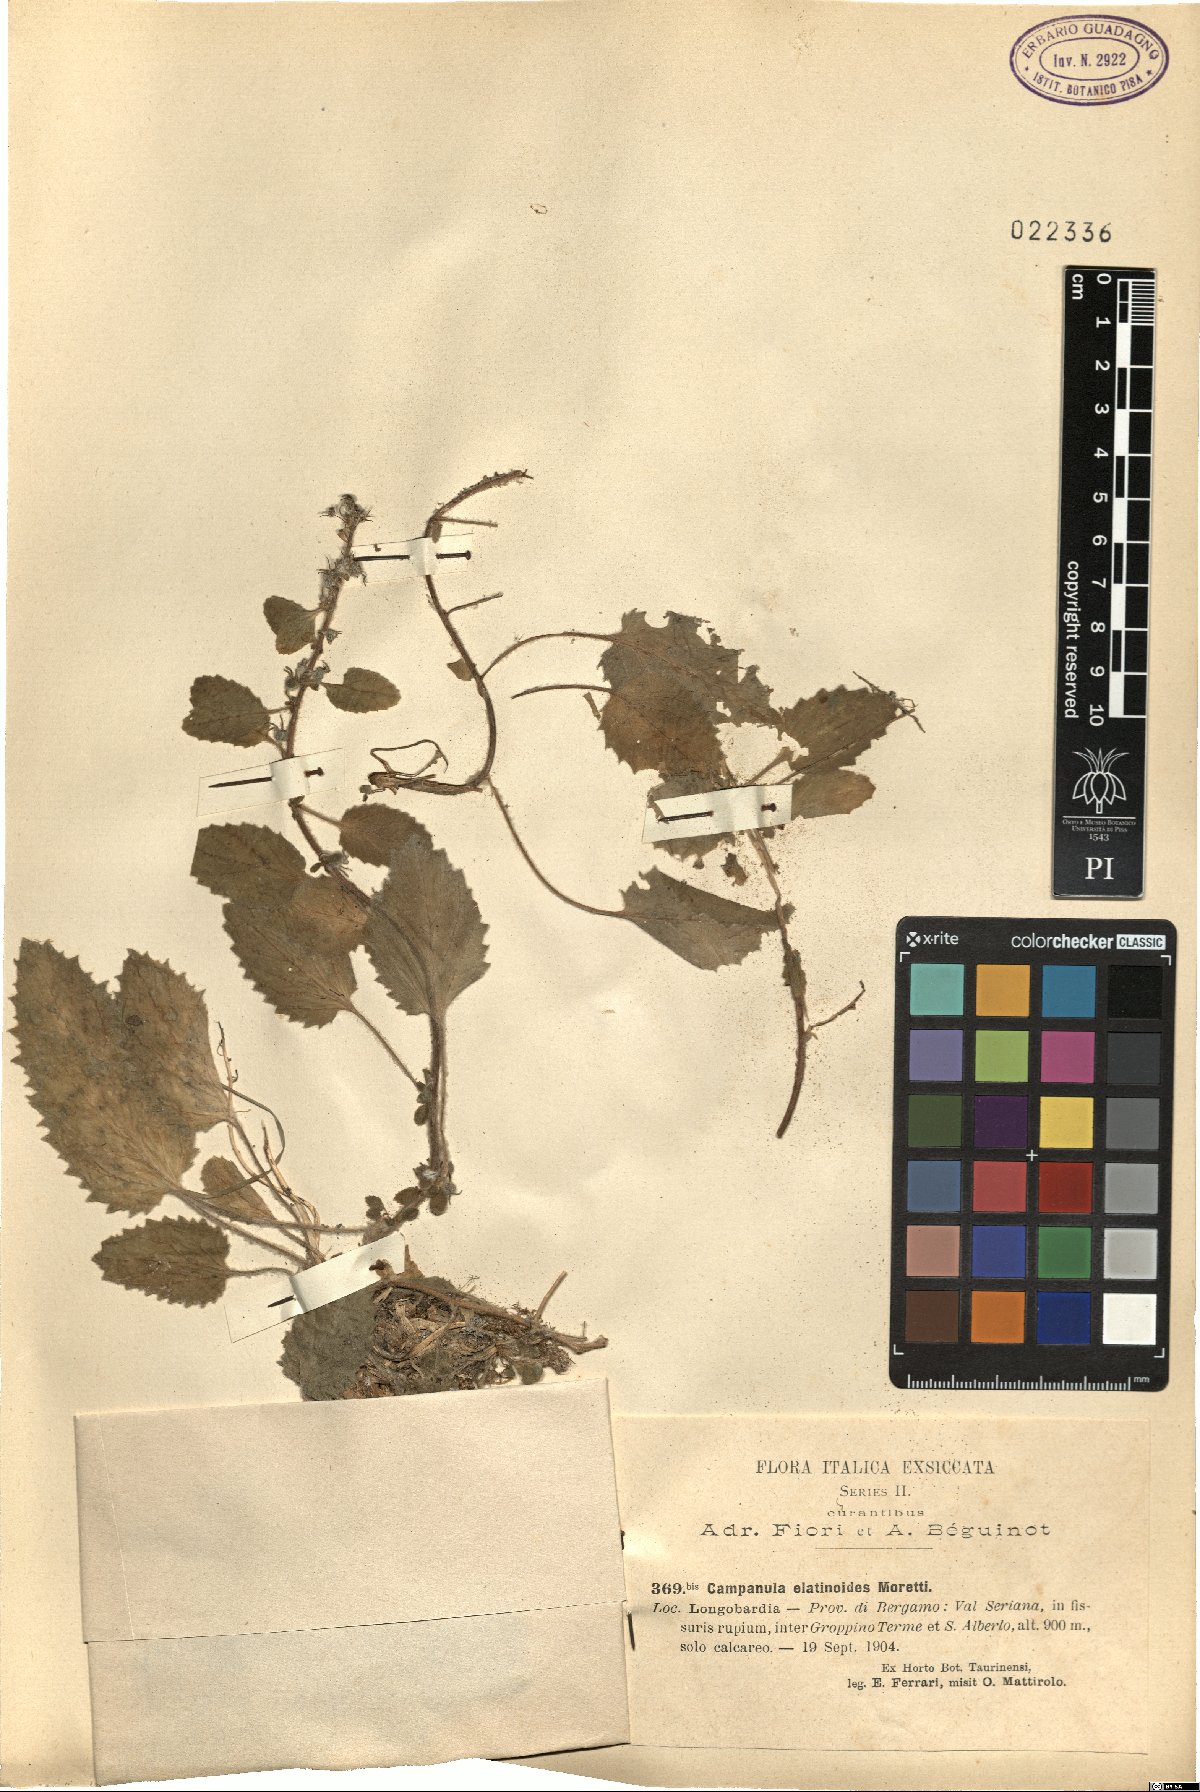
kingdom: Plantae
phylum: Tracheophyta
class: Magnoliopsida
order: Asterales
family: Campanulaceae
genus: Campanula
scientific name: Campanula elatinoides
